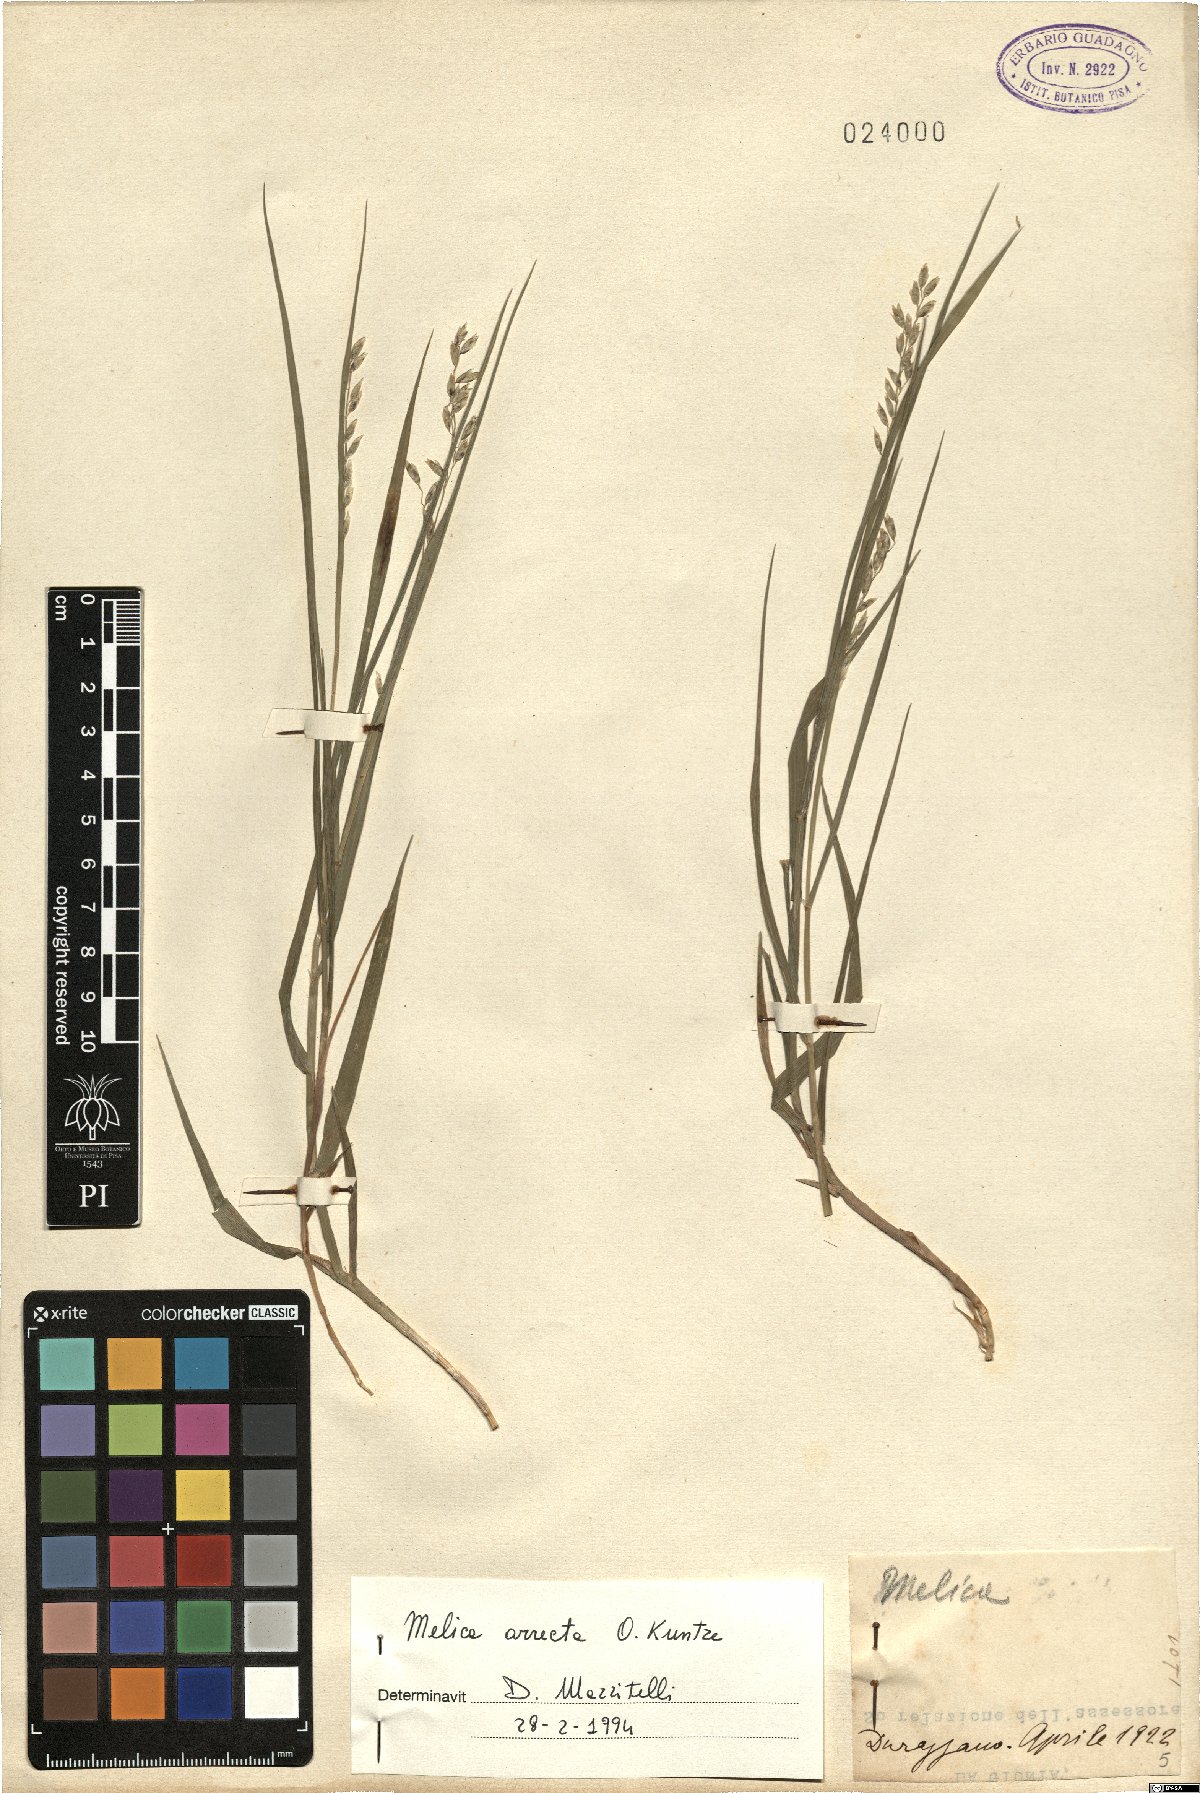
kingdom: Plantae
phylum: Tracheophyta
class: Liliopsida
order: Poales
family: Poaceae
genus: Melica
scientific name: Melica minuta
